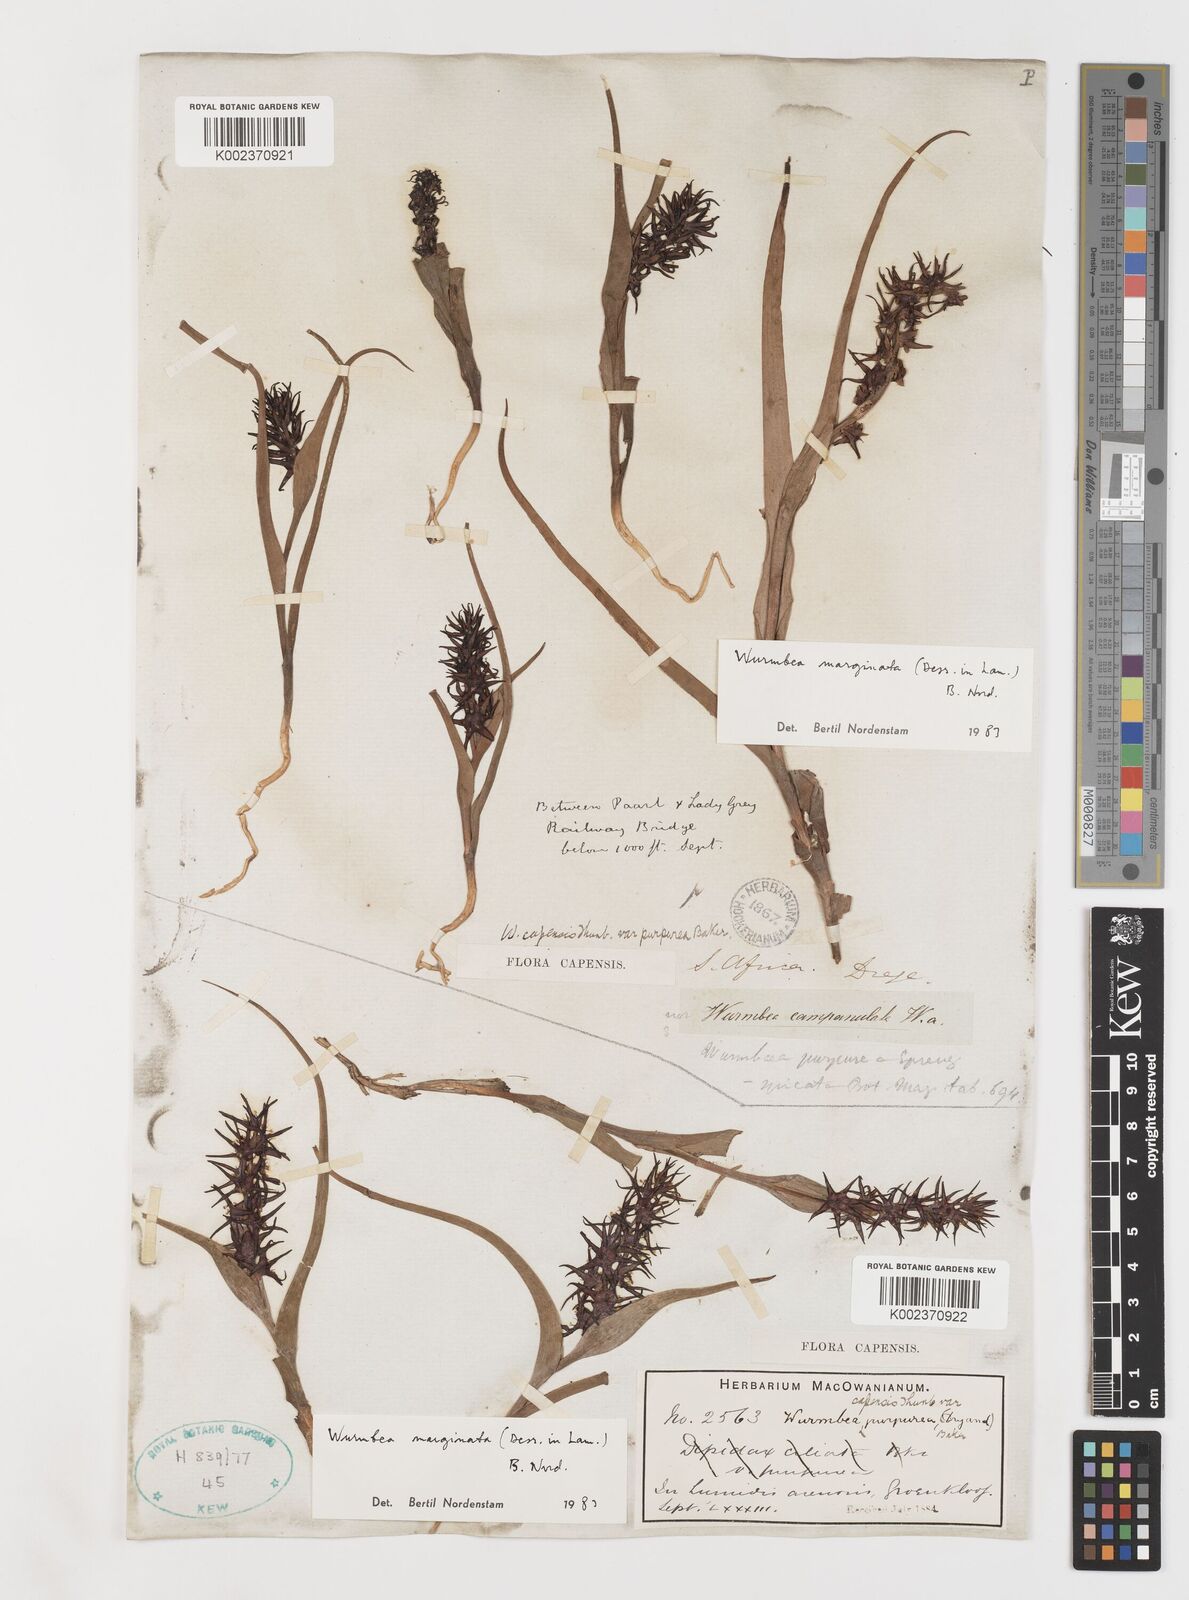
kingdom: Plantae
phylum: Tracheophyta
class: Liliopsida
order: Liliales
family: Colchicaceae
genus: Wurmbea
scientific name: Wurmbea marginata
